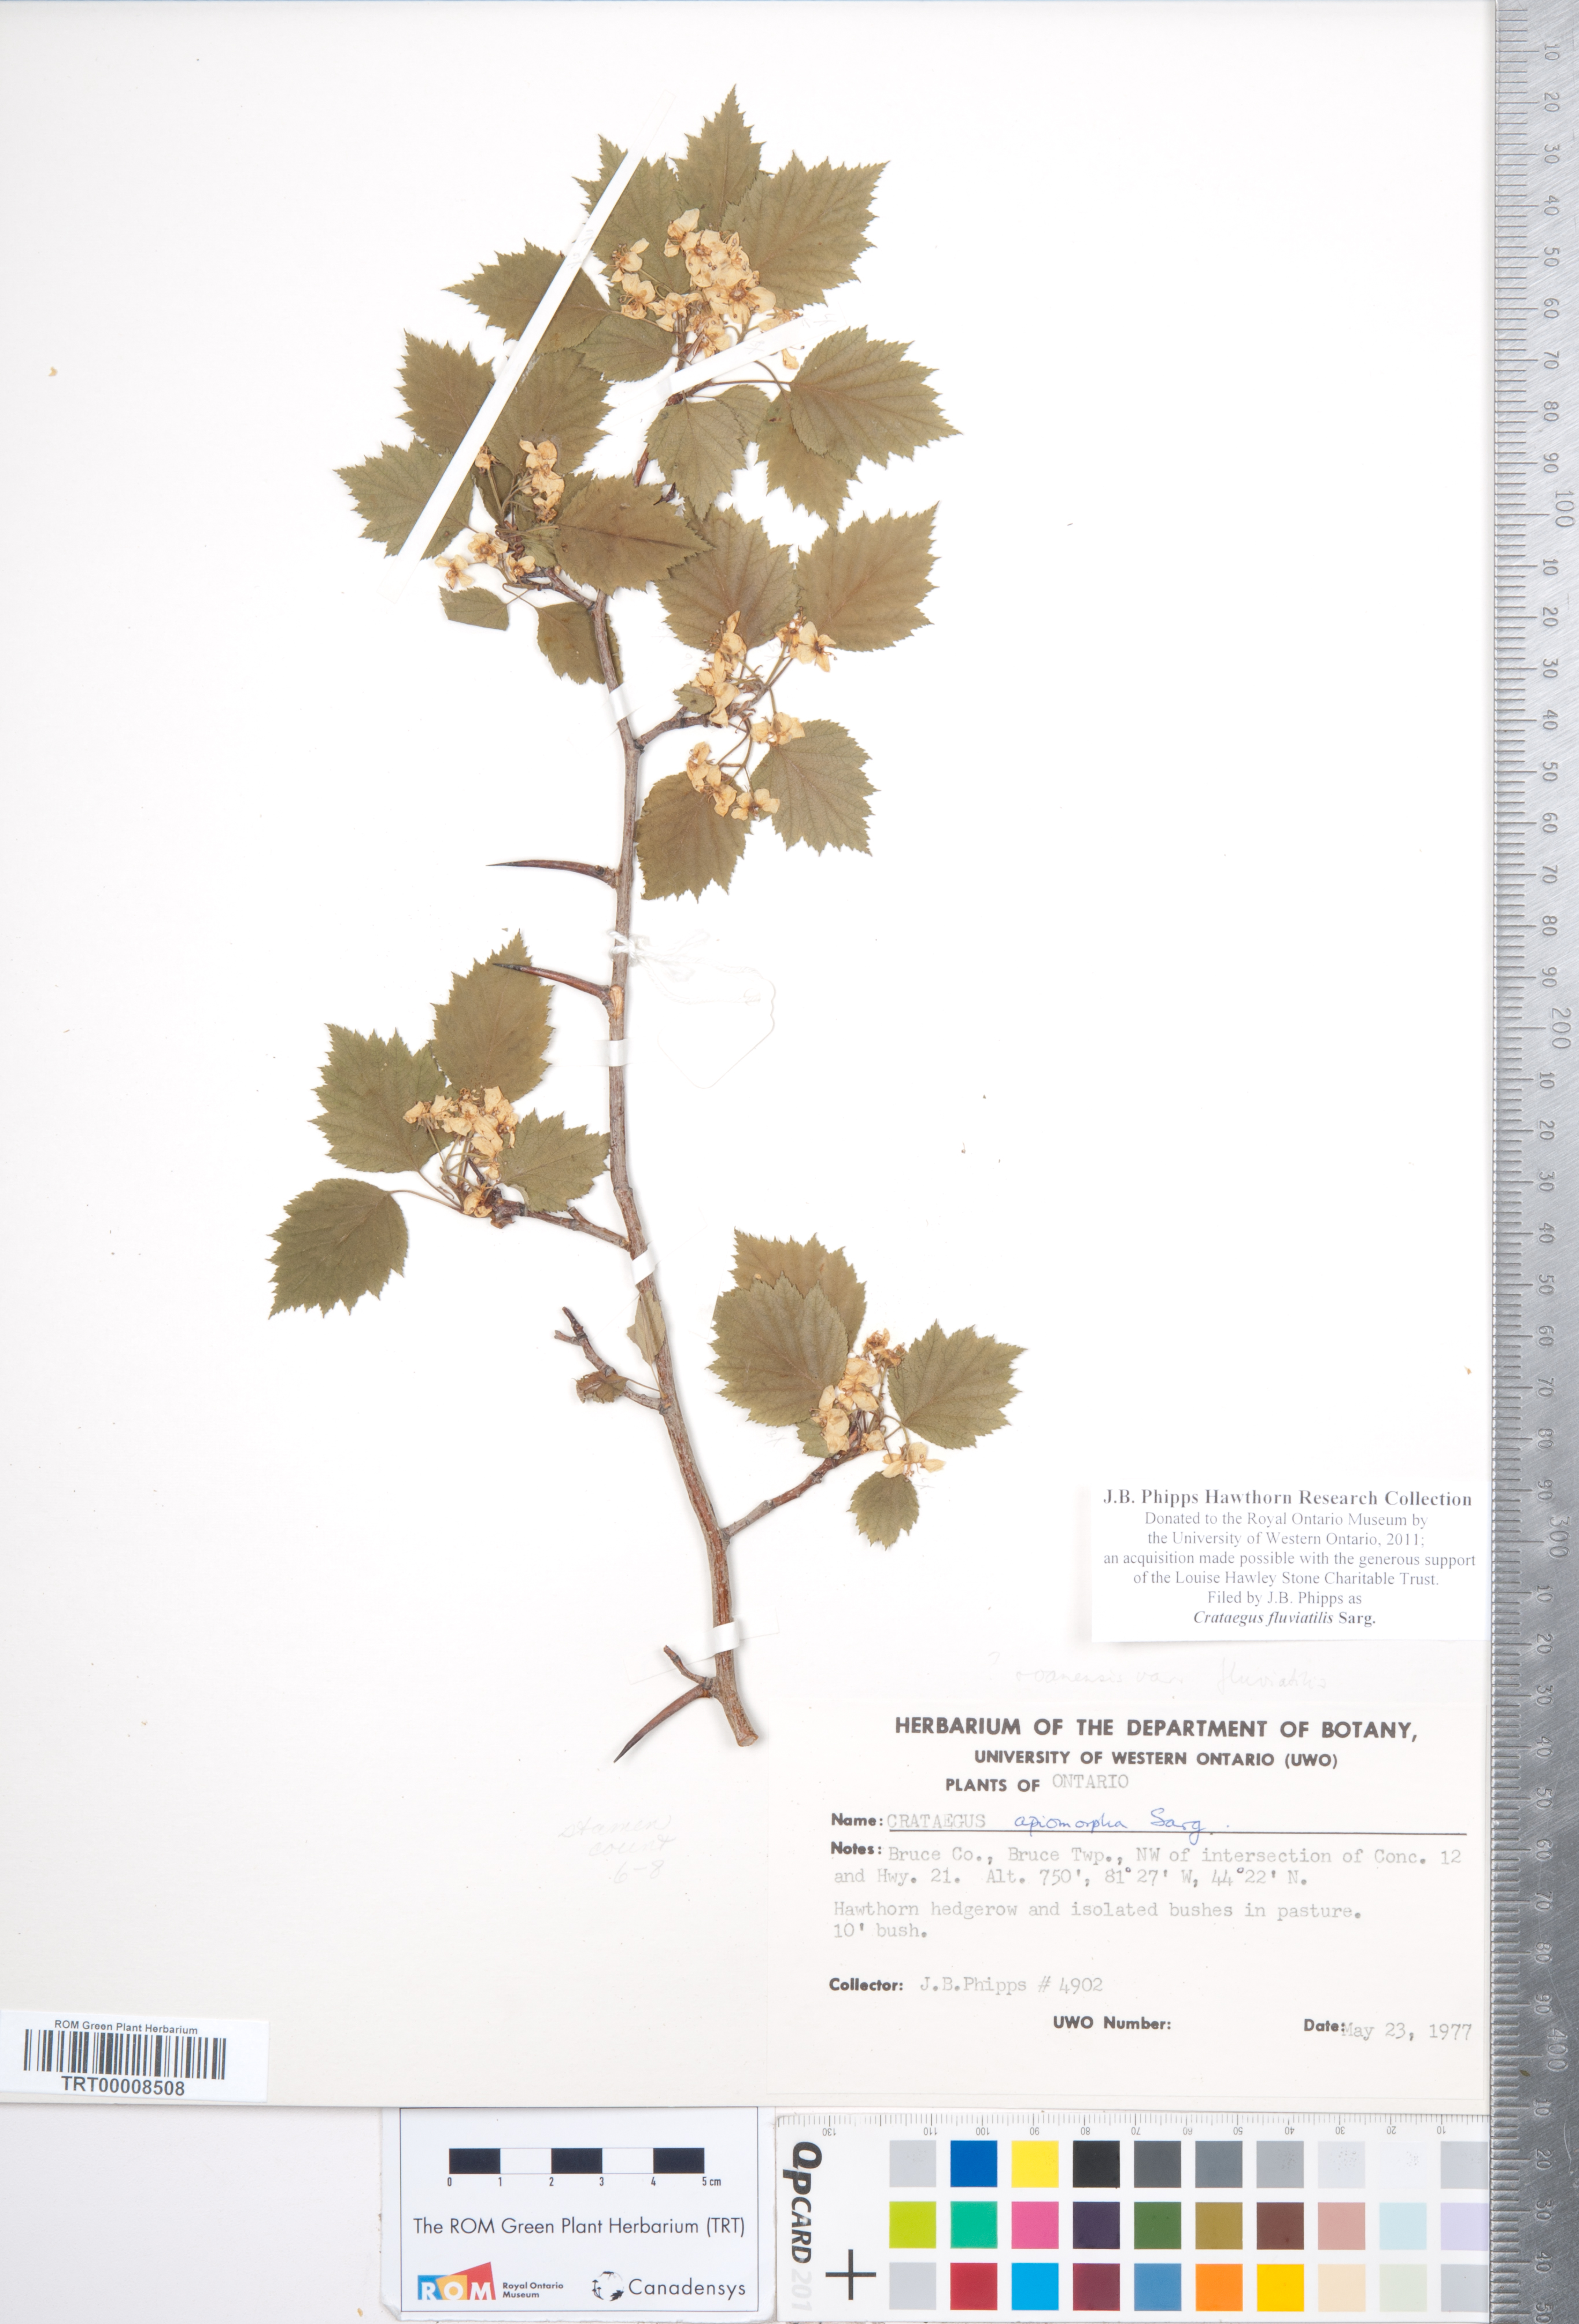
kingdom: Plantae
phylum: Tracheophyta
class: Magnoliopsida
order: Rosales
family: Rosaceae
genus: Crataegus
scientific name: Crataegus fluviatilis
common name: Fort sheridan hawthorn
